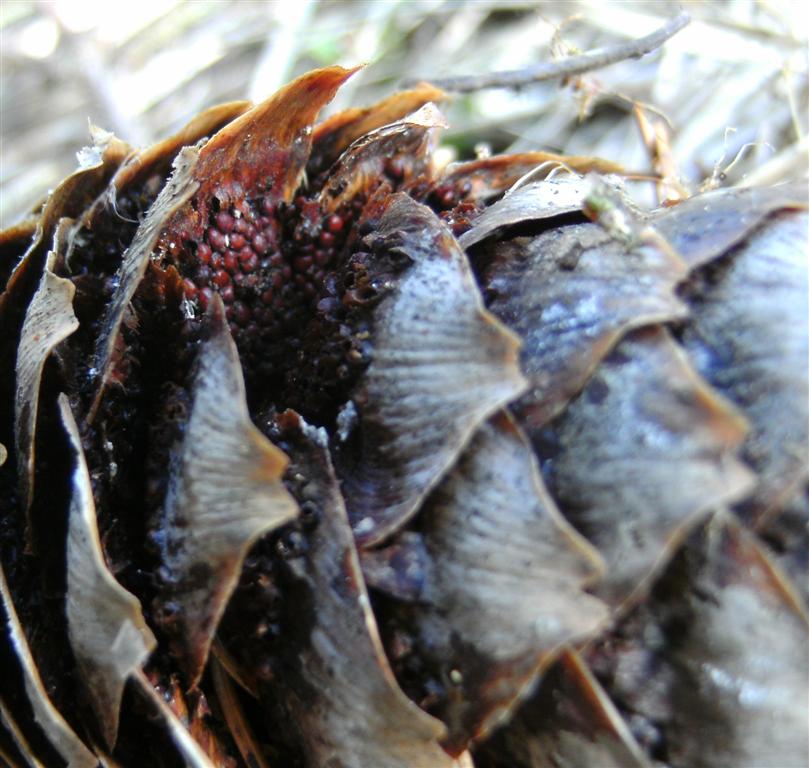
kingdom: Fungi
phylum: Basidiomycota
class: Pucciniomycetes
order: Pucciniales
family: Pucciniastraceae
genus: Thekopsora
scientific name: Thekopsora areolata
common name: grankogle-nålerust
